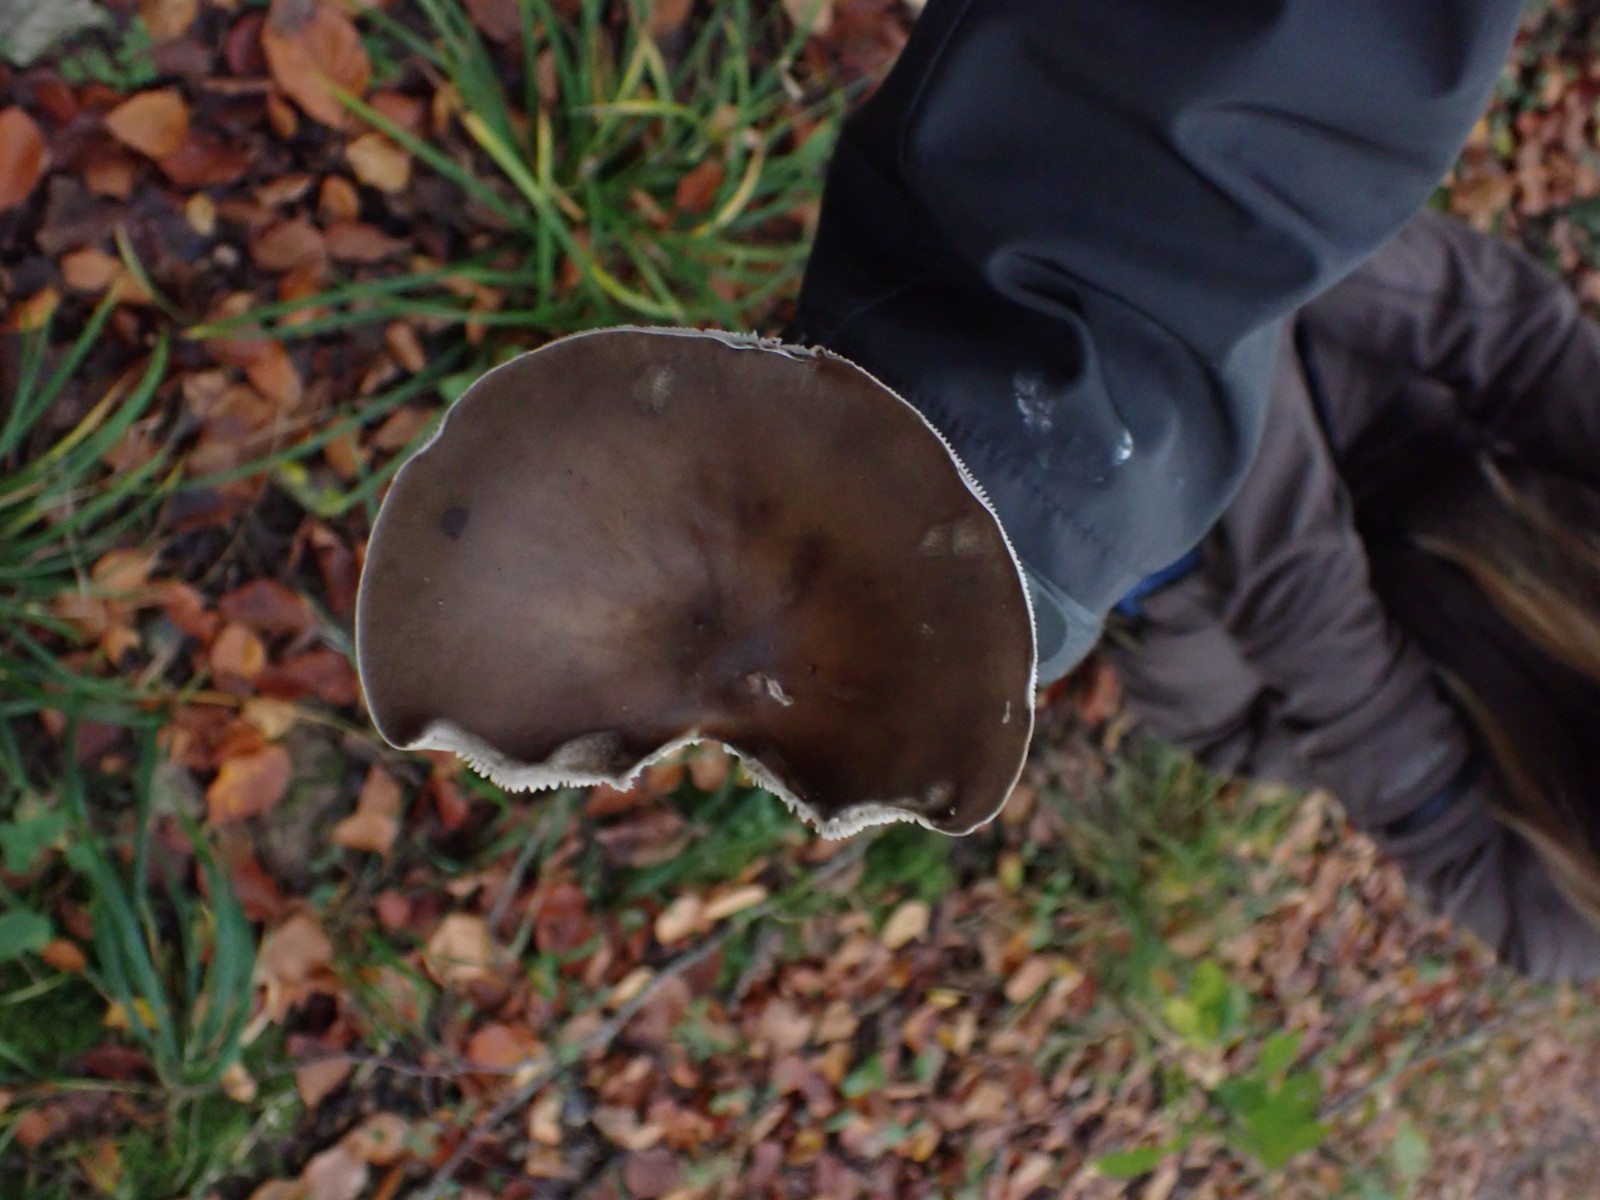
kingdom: Fungi
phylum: Basidiomycota
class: Agaricomycetes
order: Agaricales
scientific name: Agaricales
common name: champignonordenen
